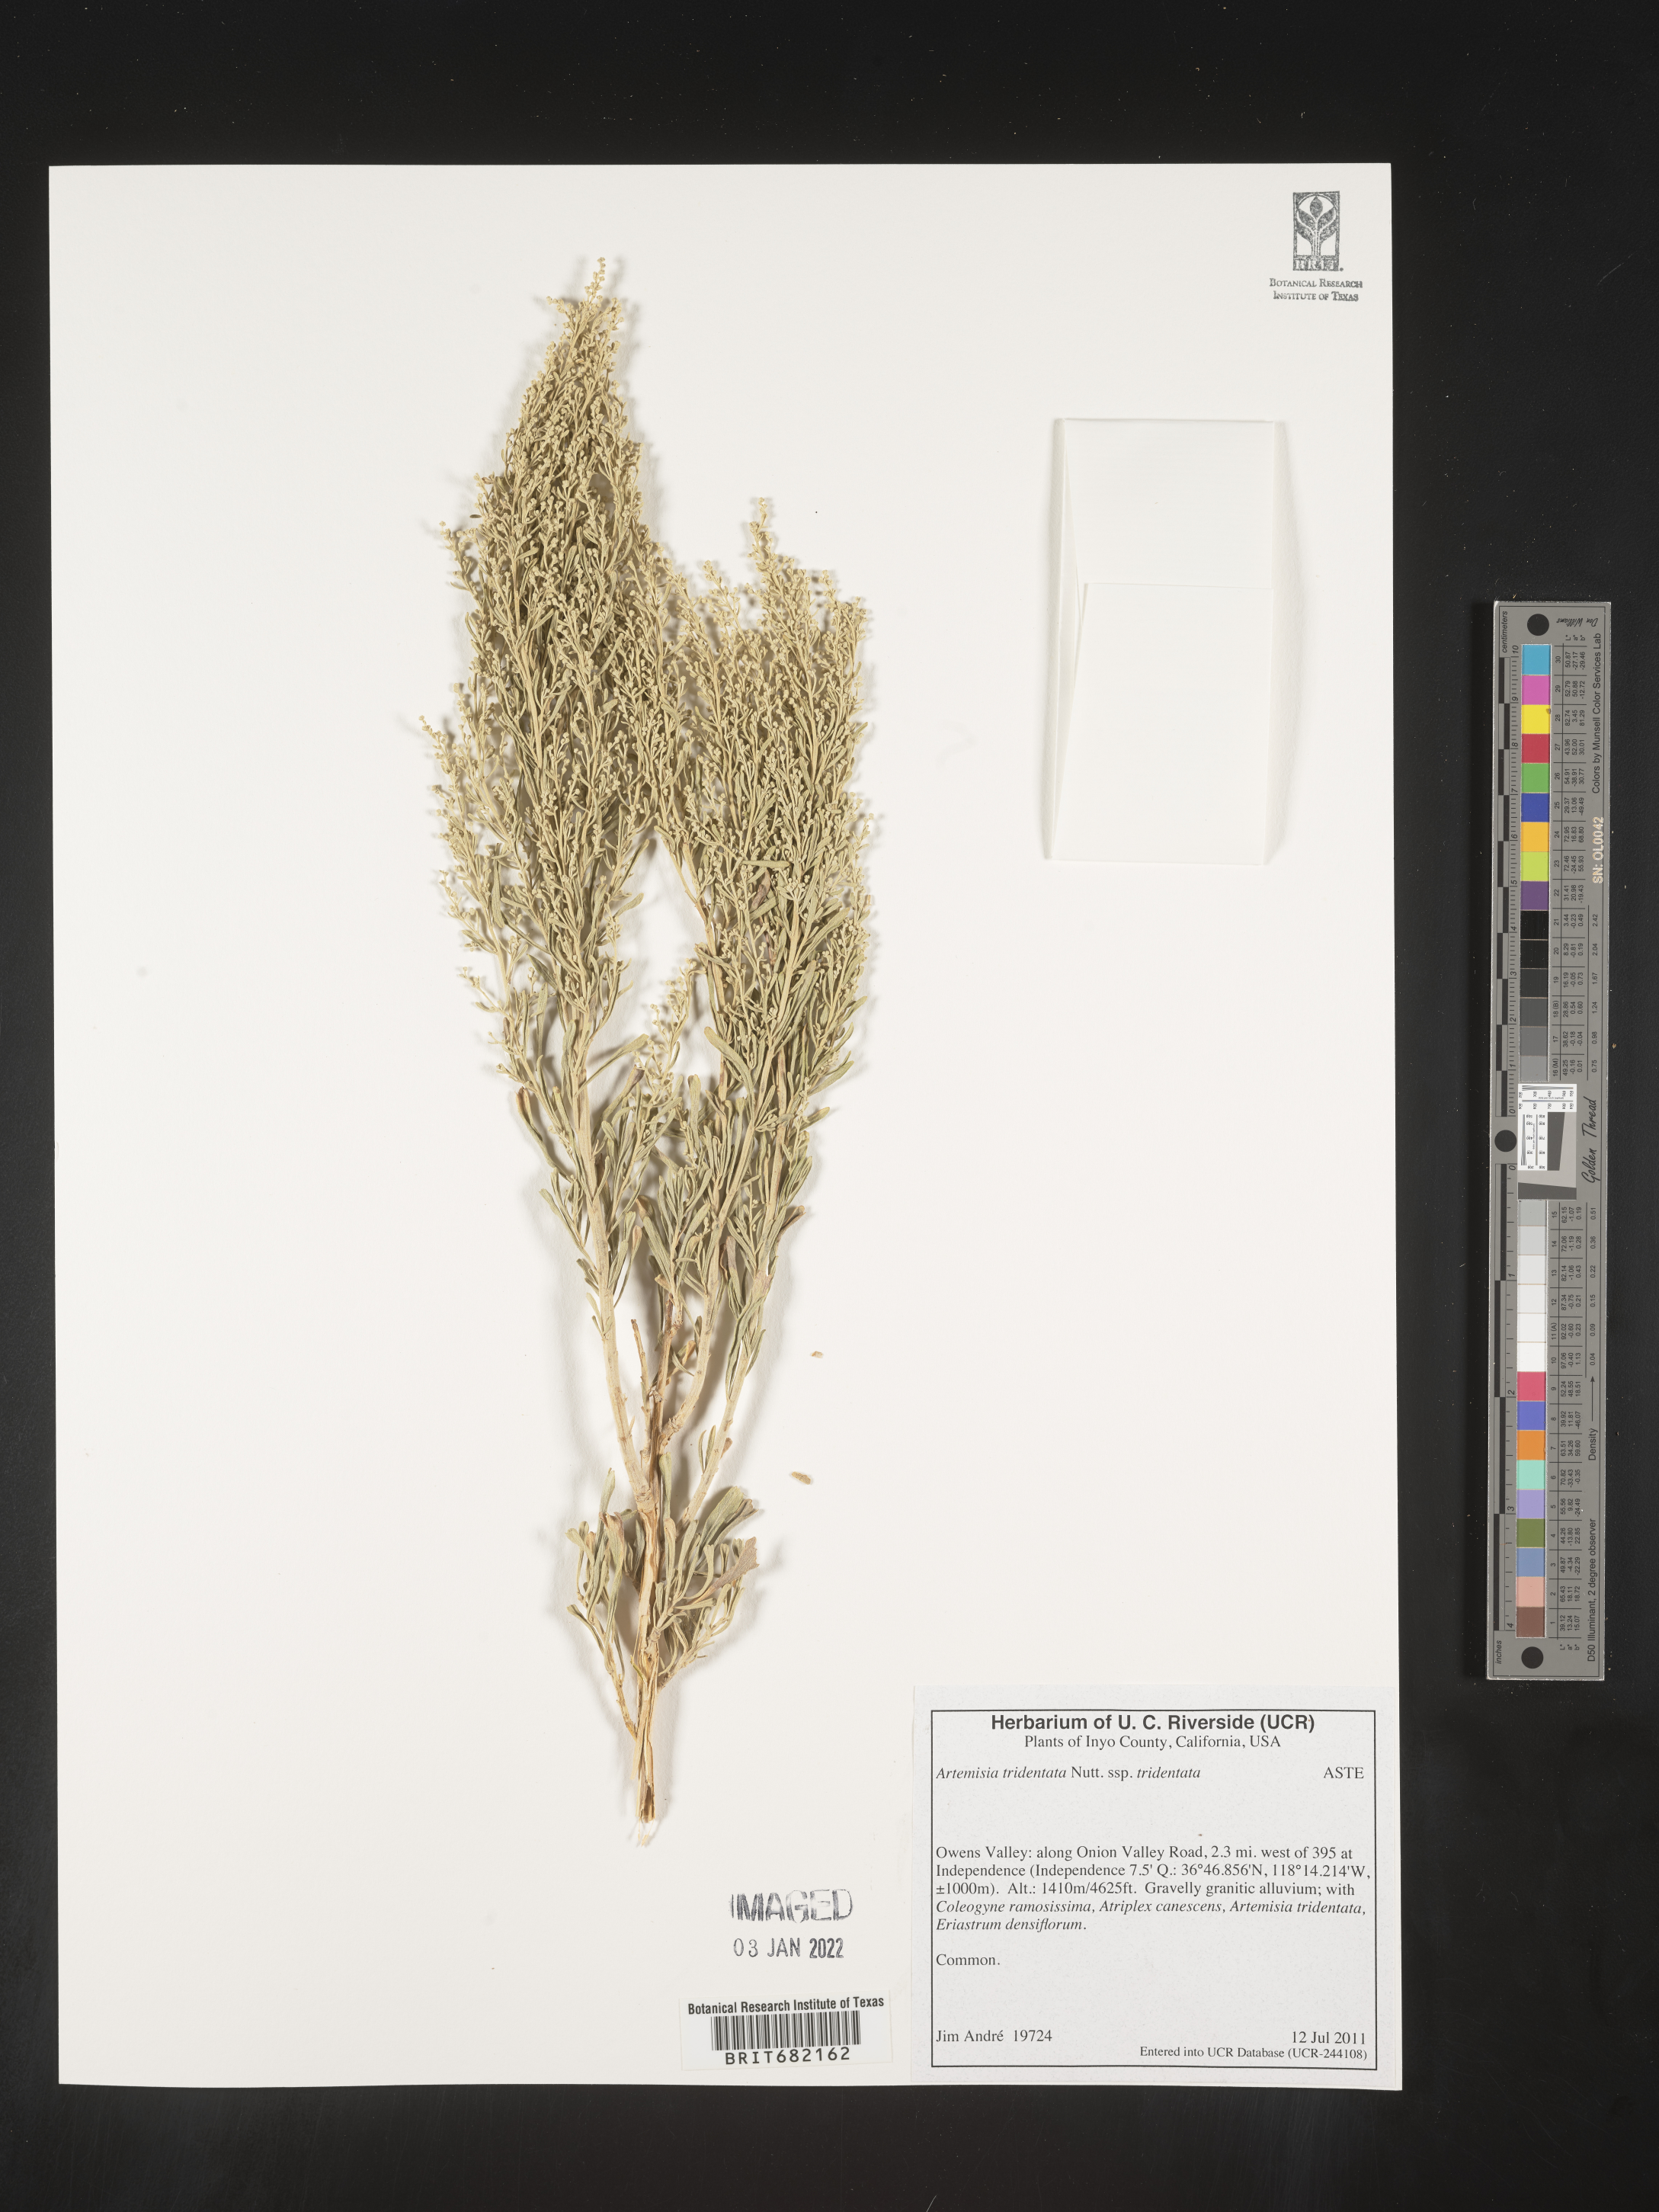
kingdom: Plantae
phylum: Tracheophyta
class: Magnoliopsida
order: Asterales
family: Asteraceae
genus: Artemisia
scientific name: Artemisia tridentata
